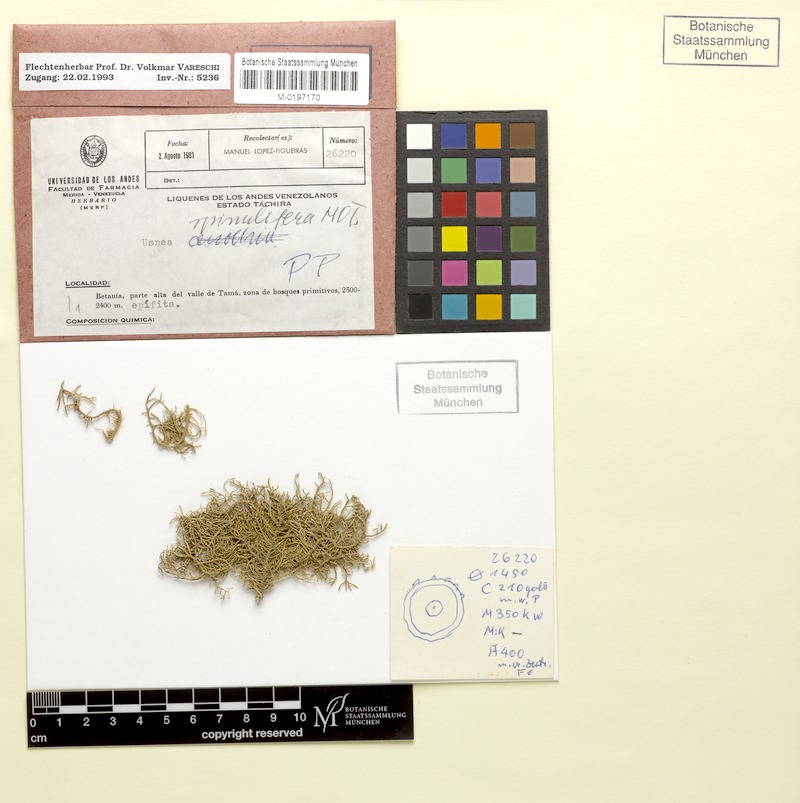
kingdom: Fungi
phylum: Ascomycota
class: Lecanoromycetes
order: Lecanorales
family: Parmeliaceae
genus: Usnea
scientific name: Usnea spinulifera
